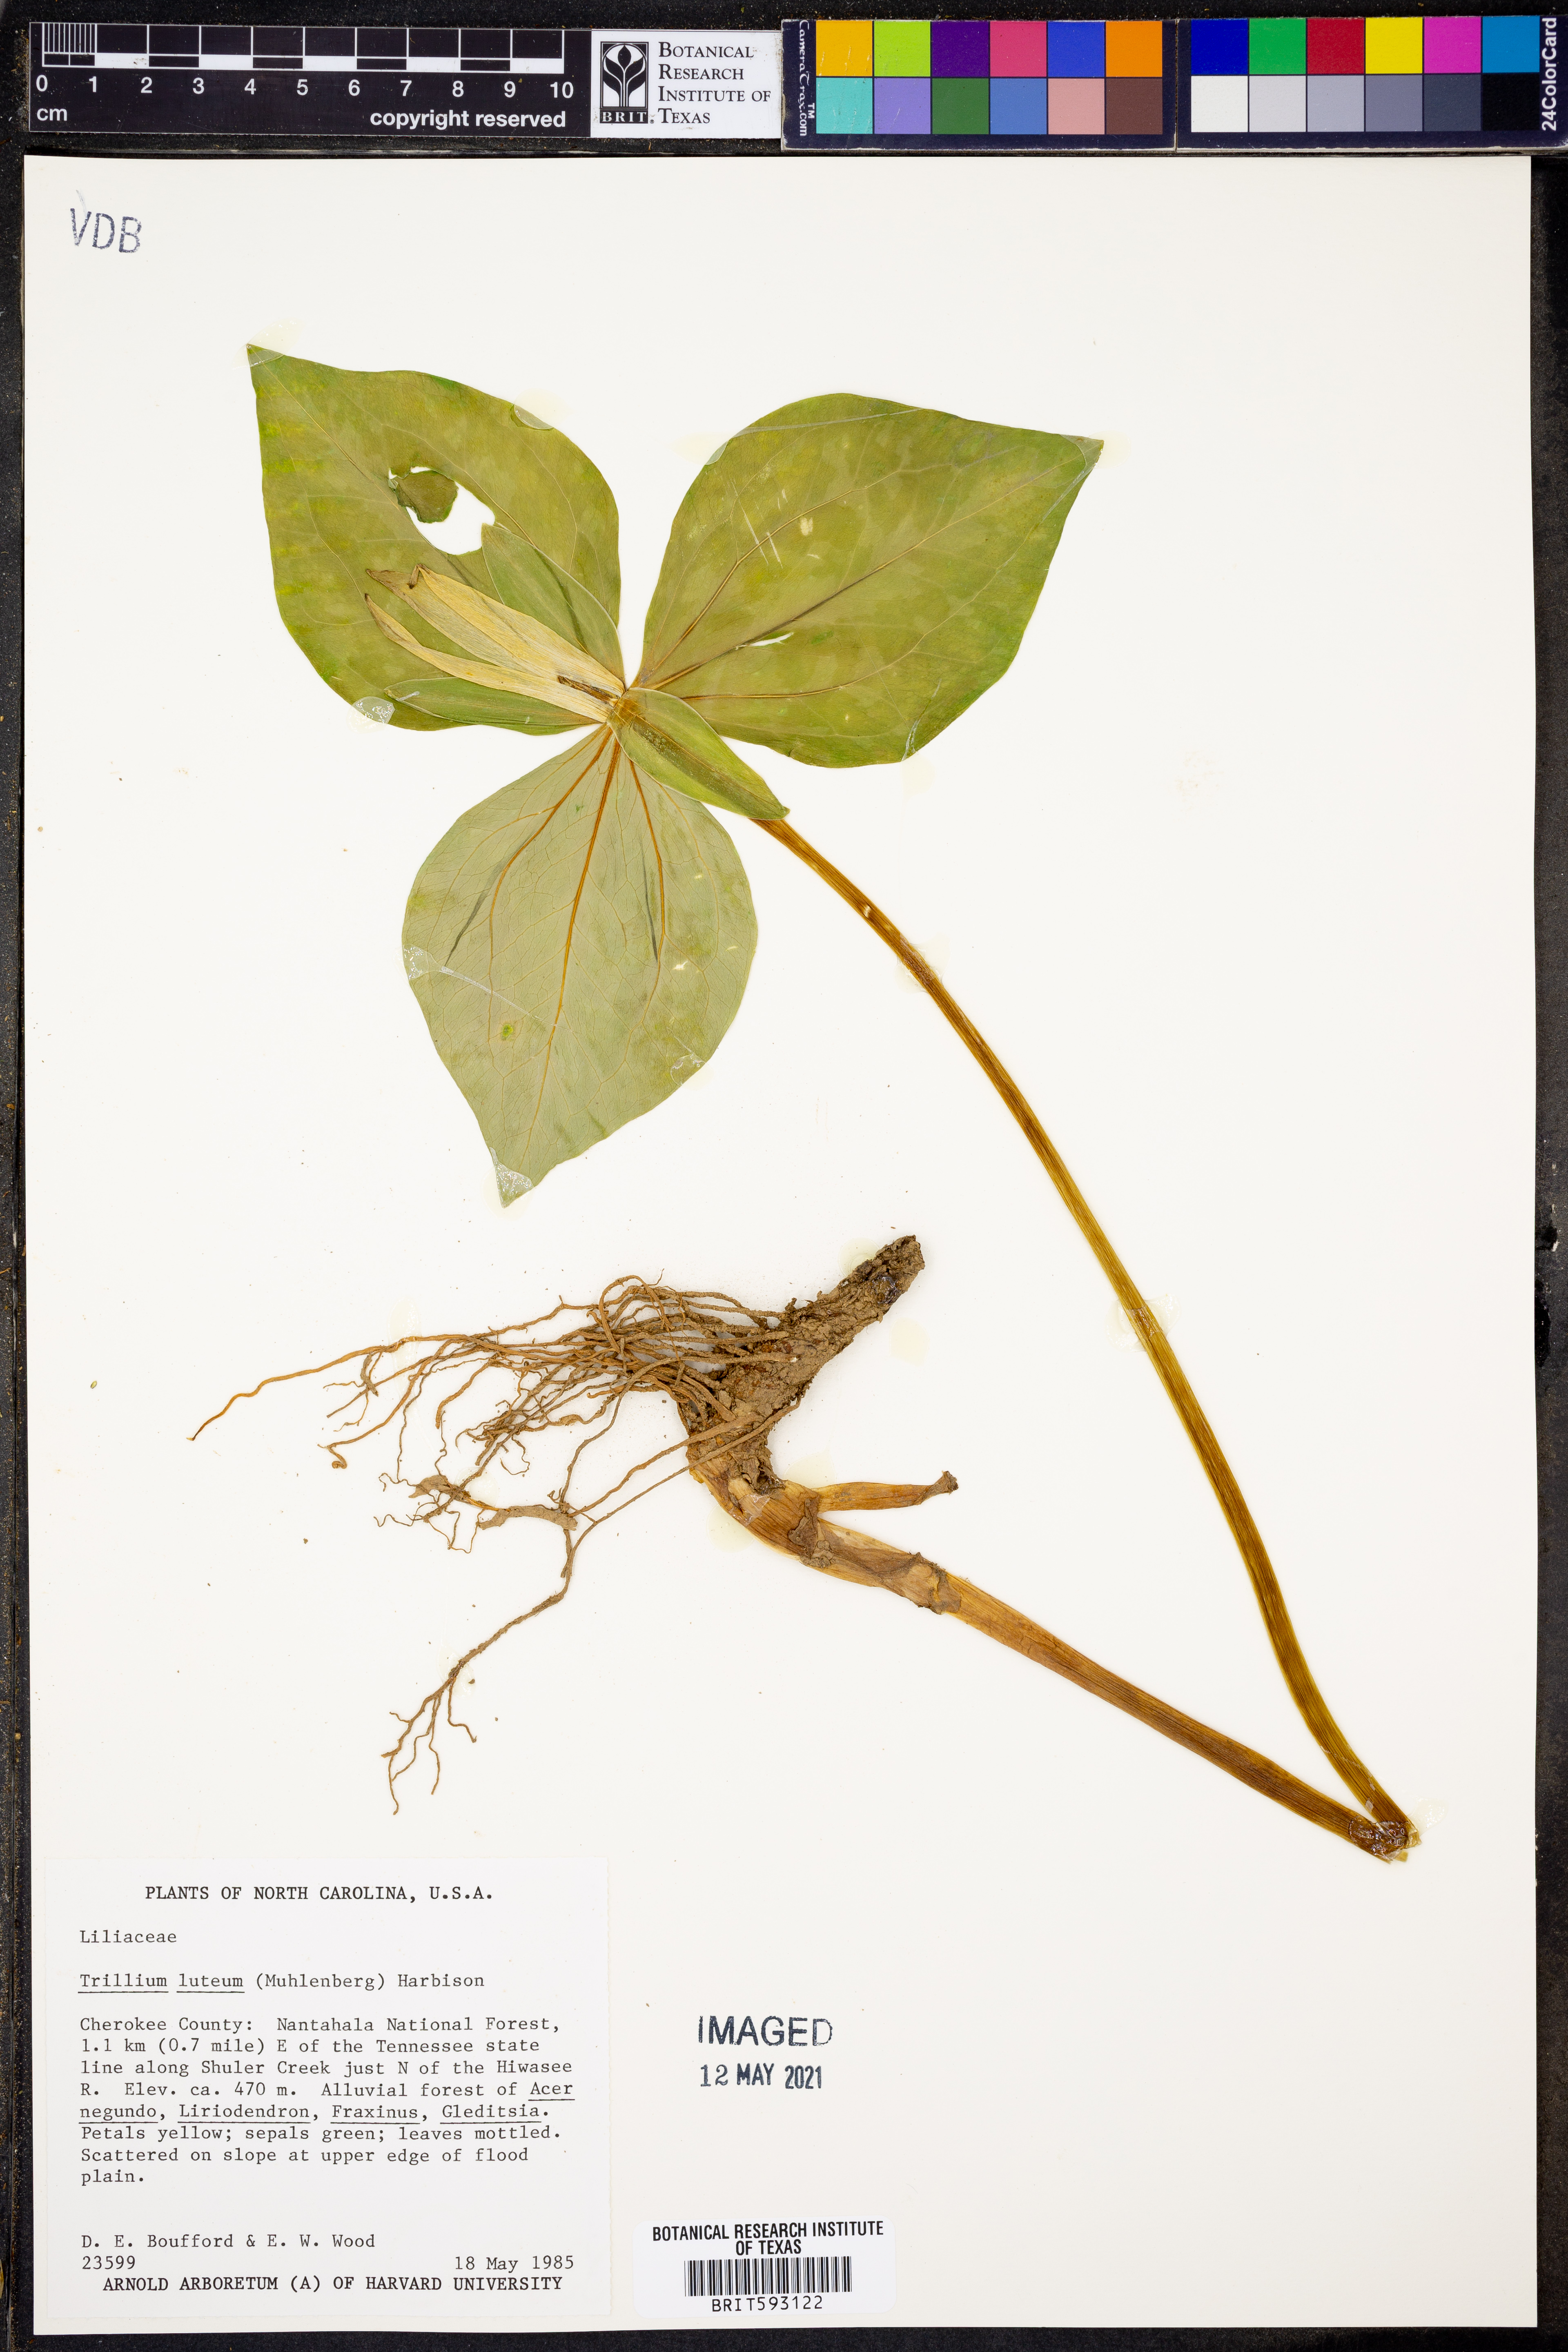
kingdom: Plantae
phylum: Tracheophyta
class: Liliopsida
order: Liliales
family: Melanthiaceae
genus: Trillium
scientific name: Trillium luteum
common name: Wax trillium
